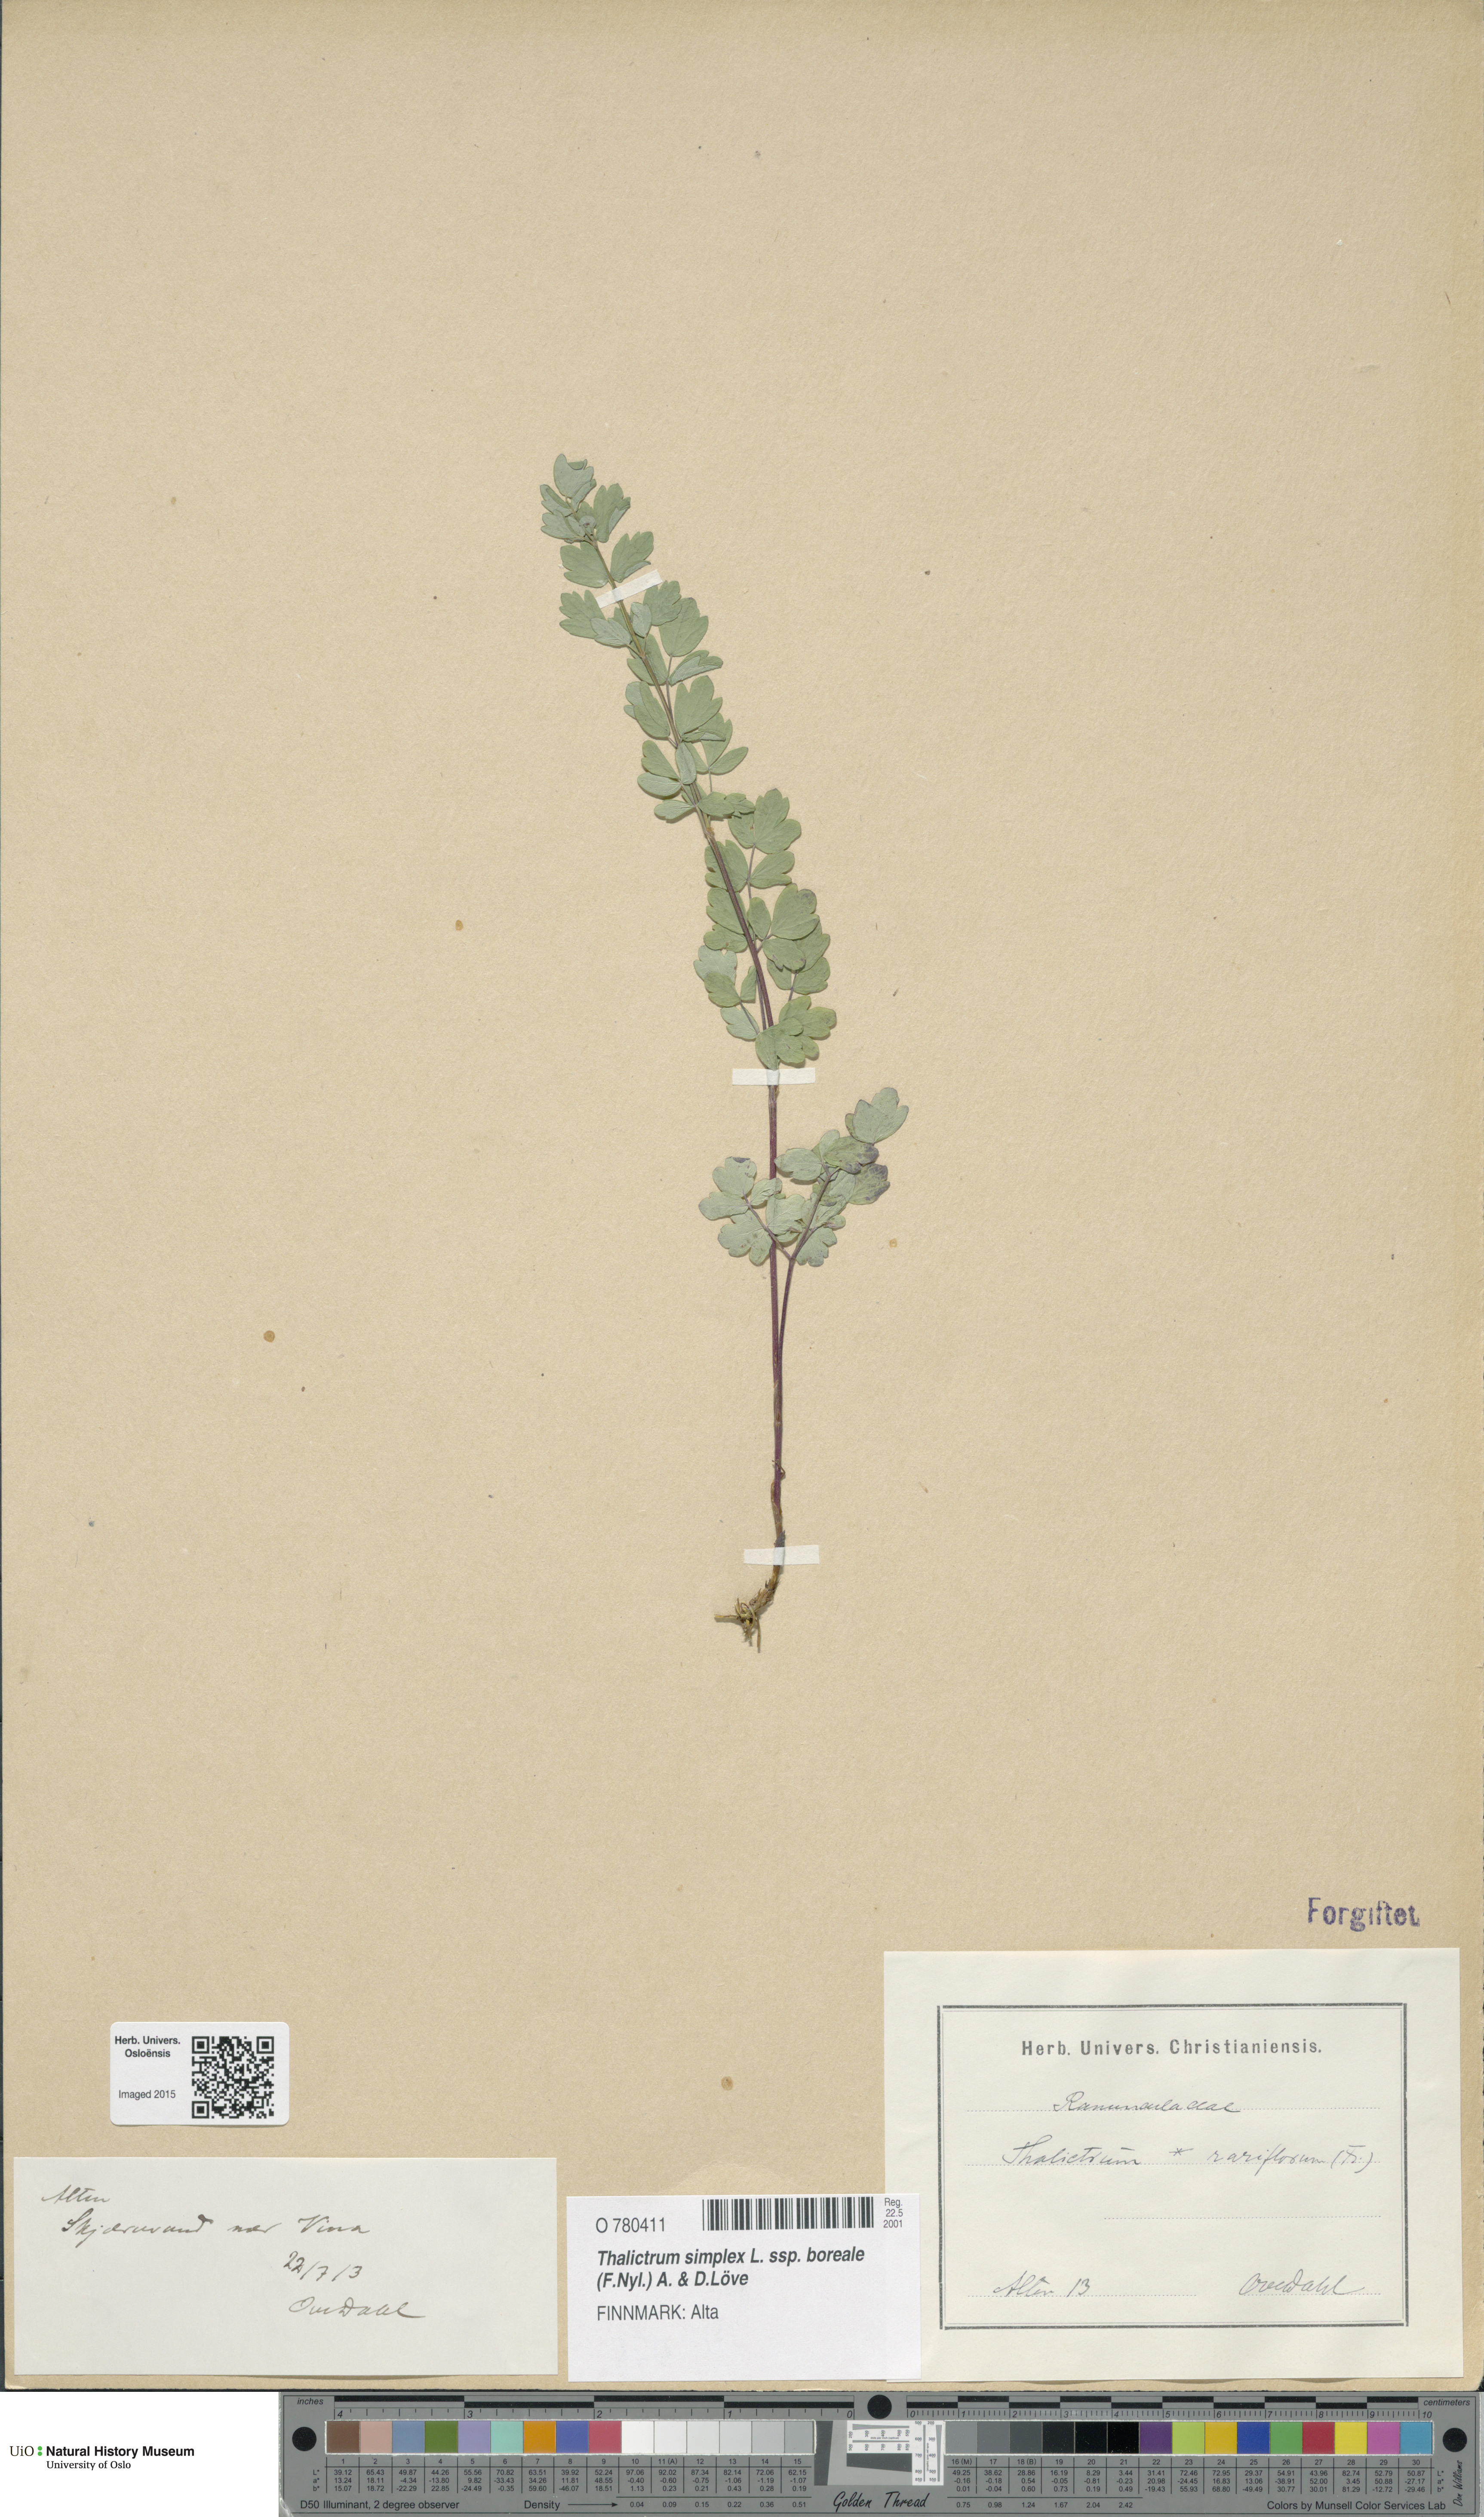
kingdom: Plantae
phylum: Tracheophyta
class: Magnoliopsida
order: Ranunculales
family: Ranunculaceae
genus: Thalictrum
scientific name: Thalictrum simplex
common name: Small meadow-rue
